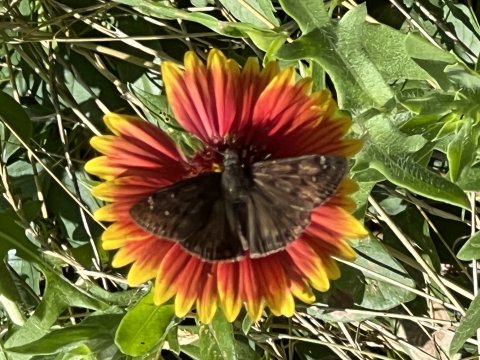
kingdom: Animalia
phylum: Arthropoda
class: Insecta
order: Lepidoptera
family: Hesperiidae
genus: Gesta
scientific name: Gesta
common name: Horace's Duskywing
